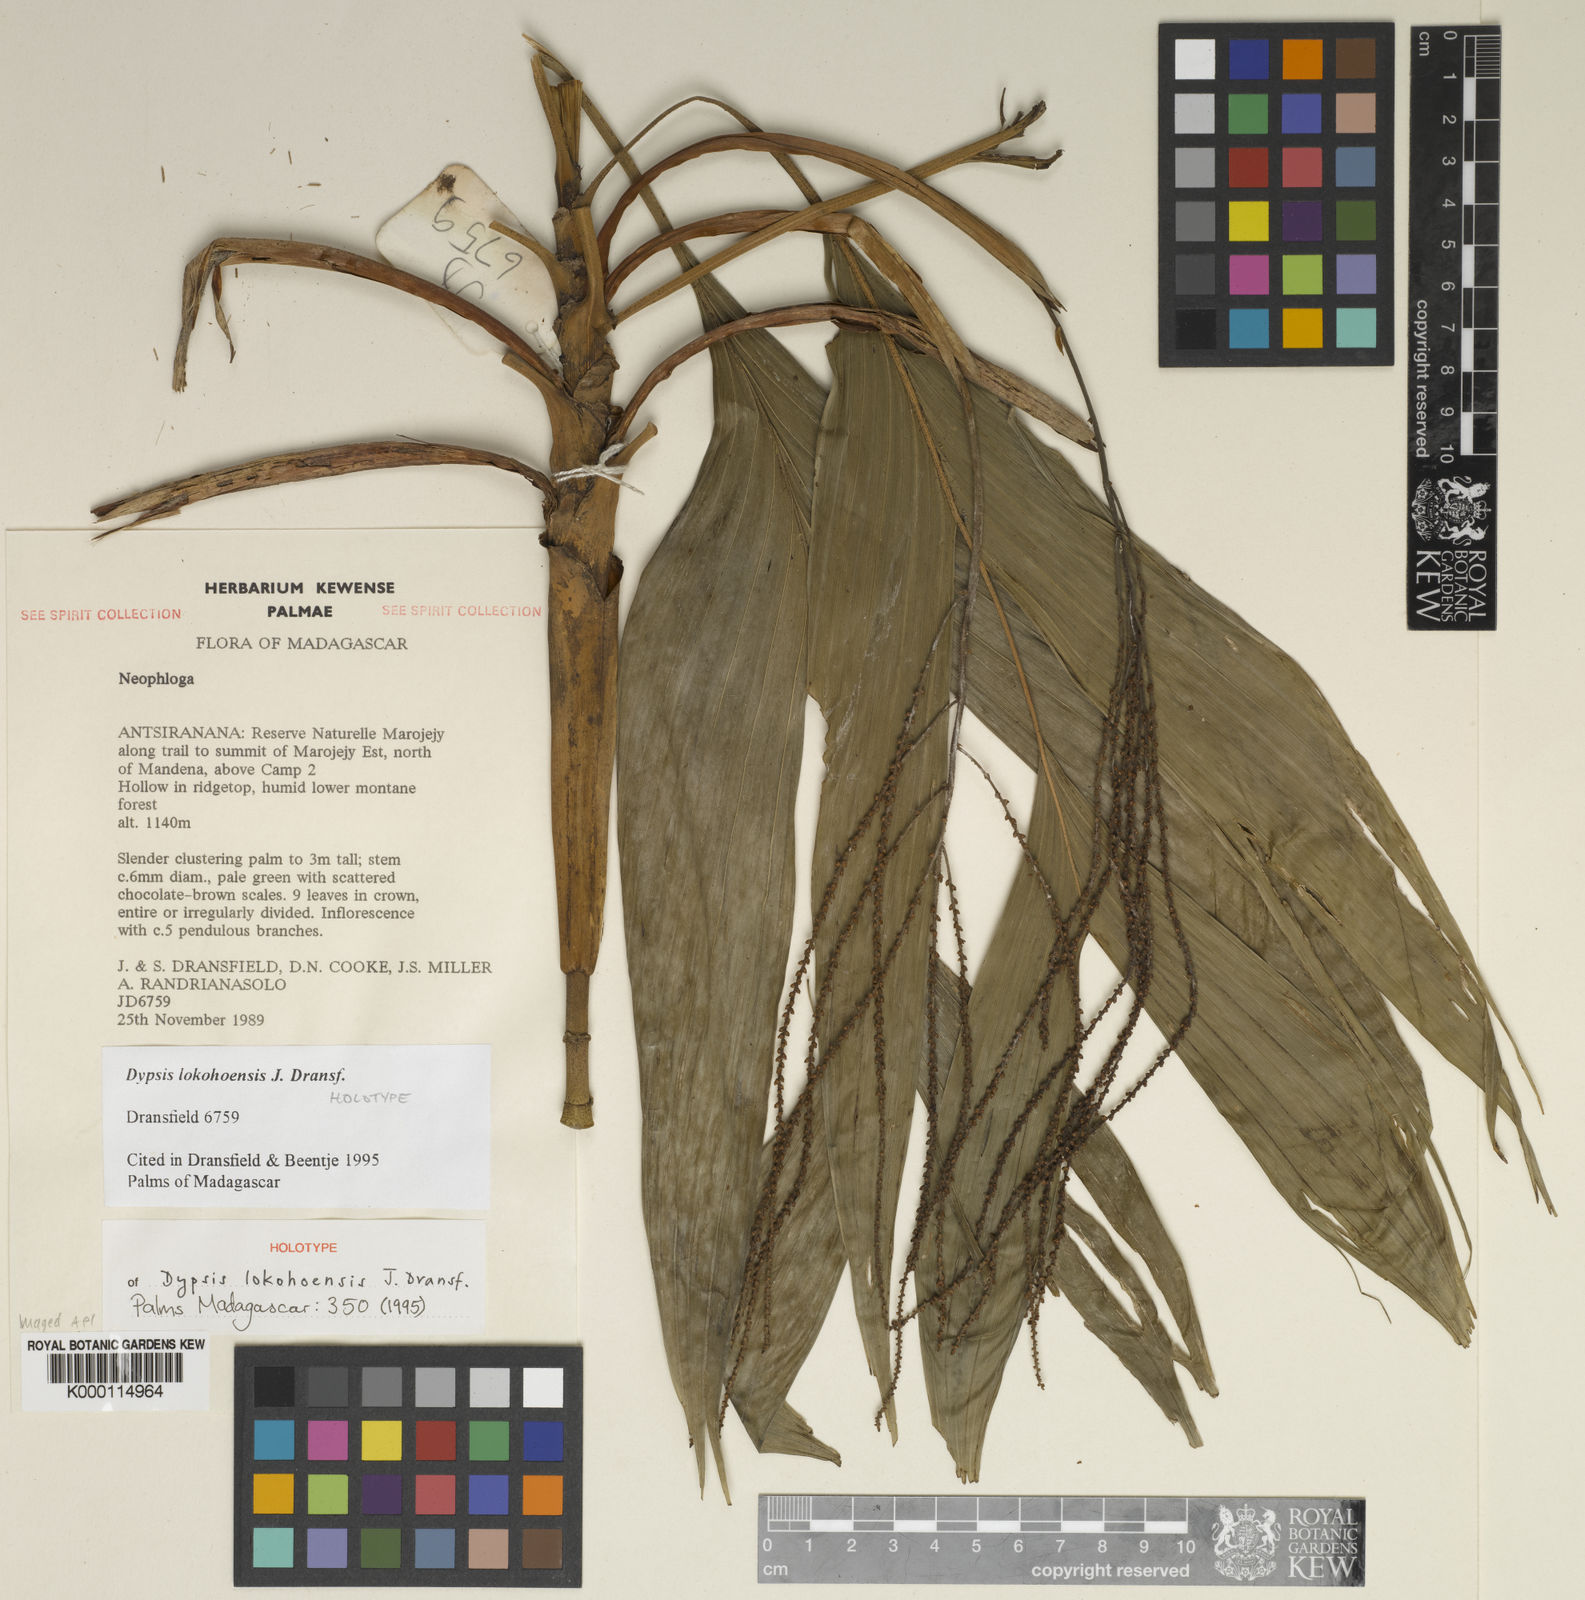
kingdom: Plantae
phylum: Tracheophyta
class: Liliopsida
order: Arecales
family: Arecaceae
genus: Dypsis
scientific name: Dypsis lokohoensis
